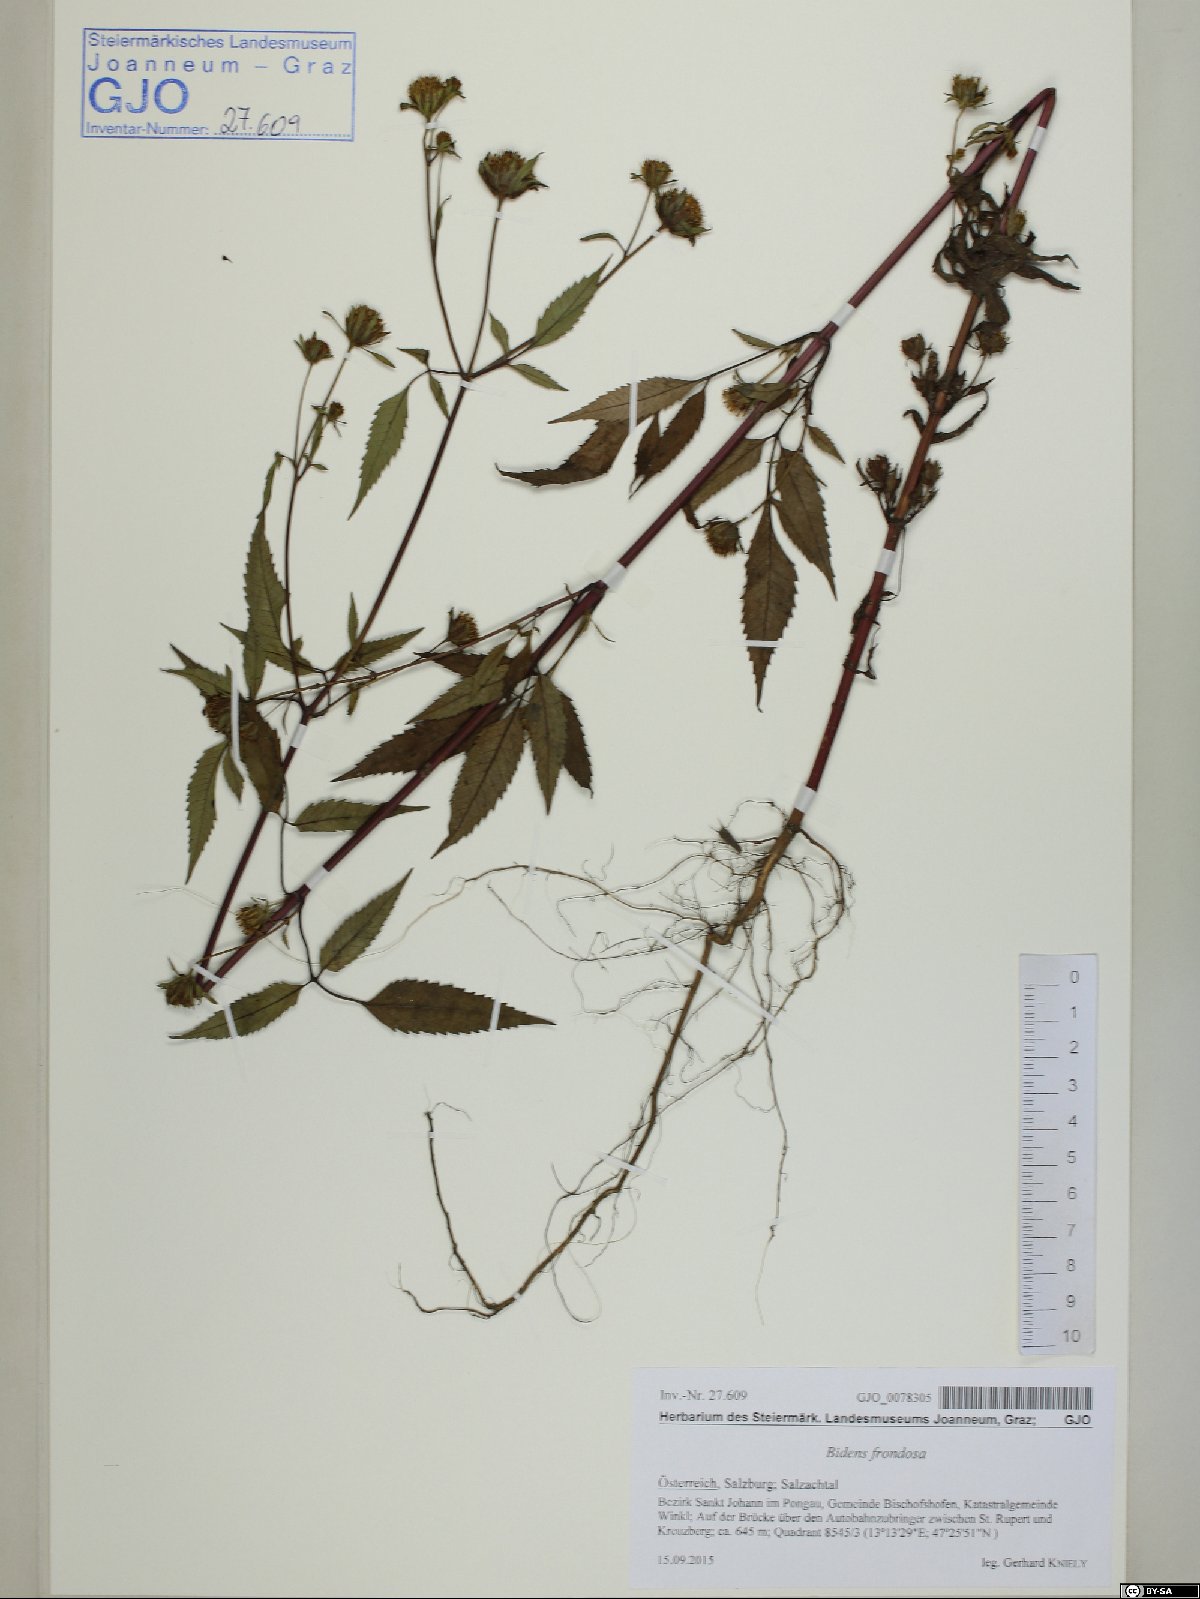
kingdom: Plantae
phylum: Tracheophyta
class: Magnoliopsida
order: Asterales
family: Asteraceae
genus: Bidens
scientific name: Bidens frondosa
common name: Beggarticks
